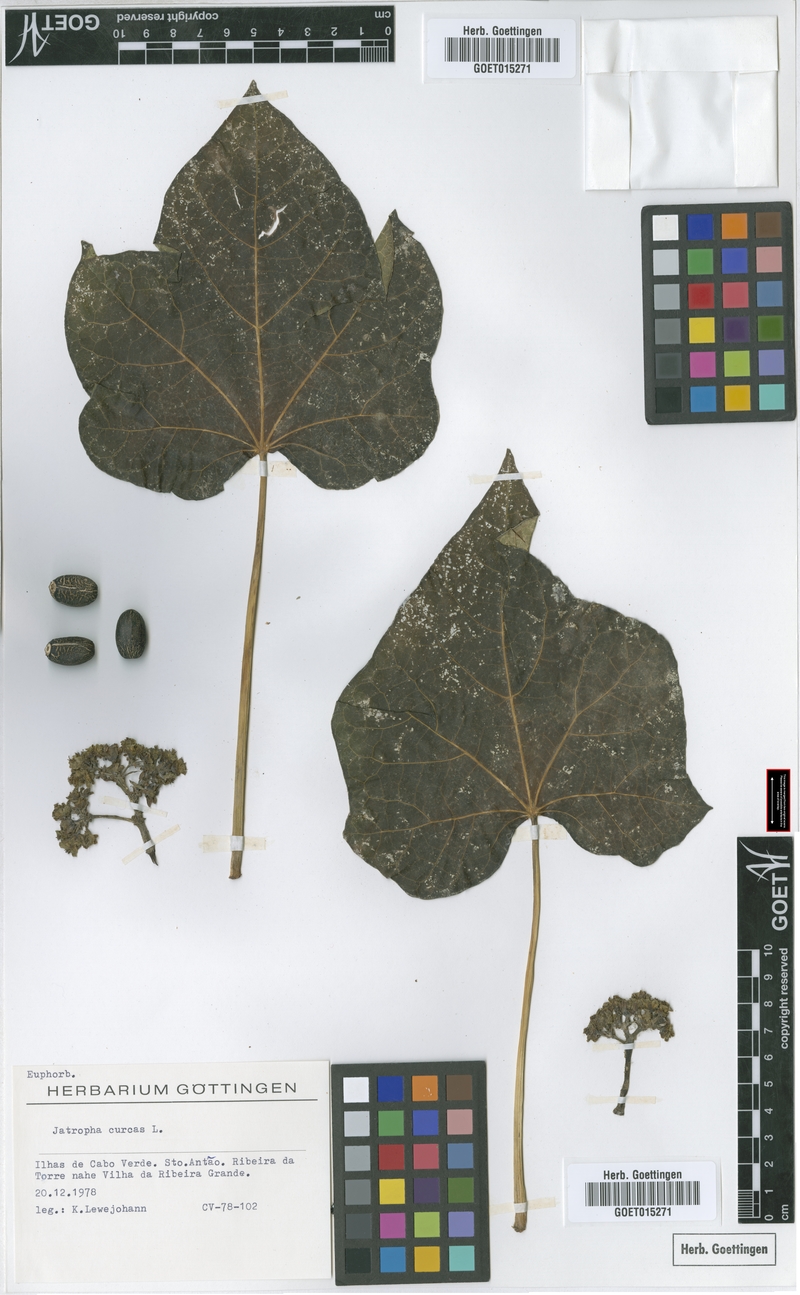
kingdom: Plantae
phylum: Tracheophyta
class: Magnoliopsida
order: Malpighiales
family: Euphorbiaceae
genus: Jatropha
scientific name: Jatropha curcas
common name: Barbados nut
